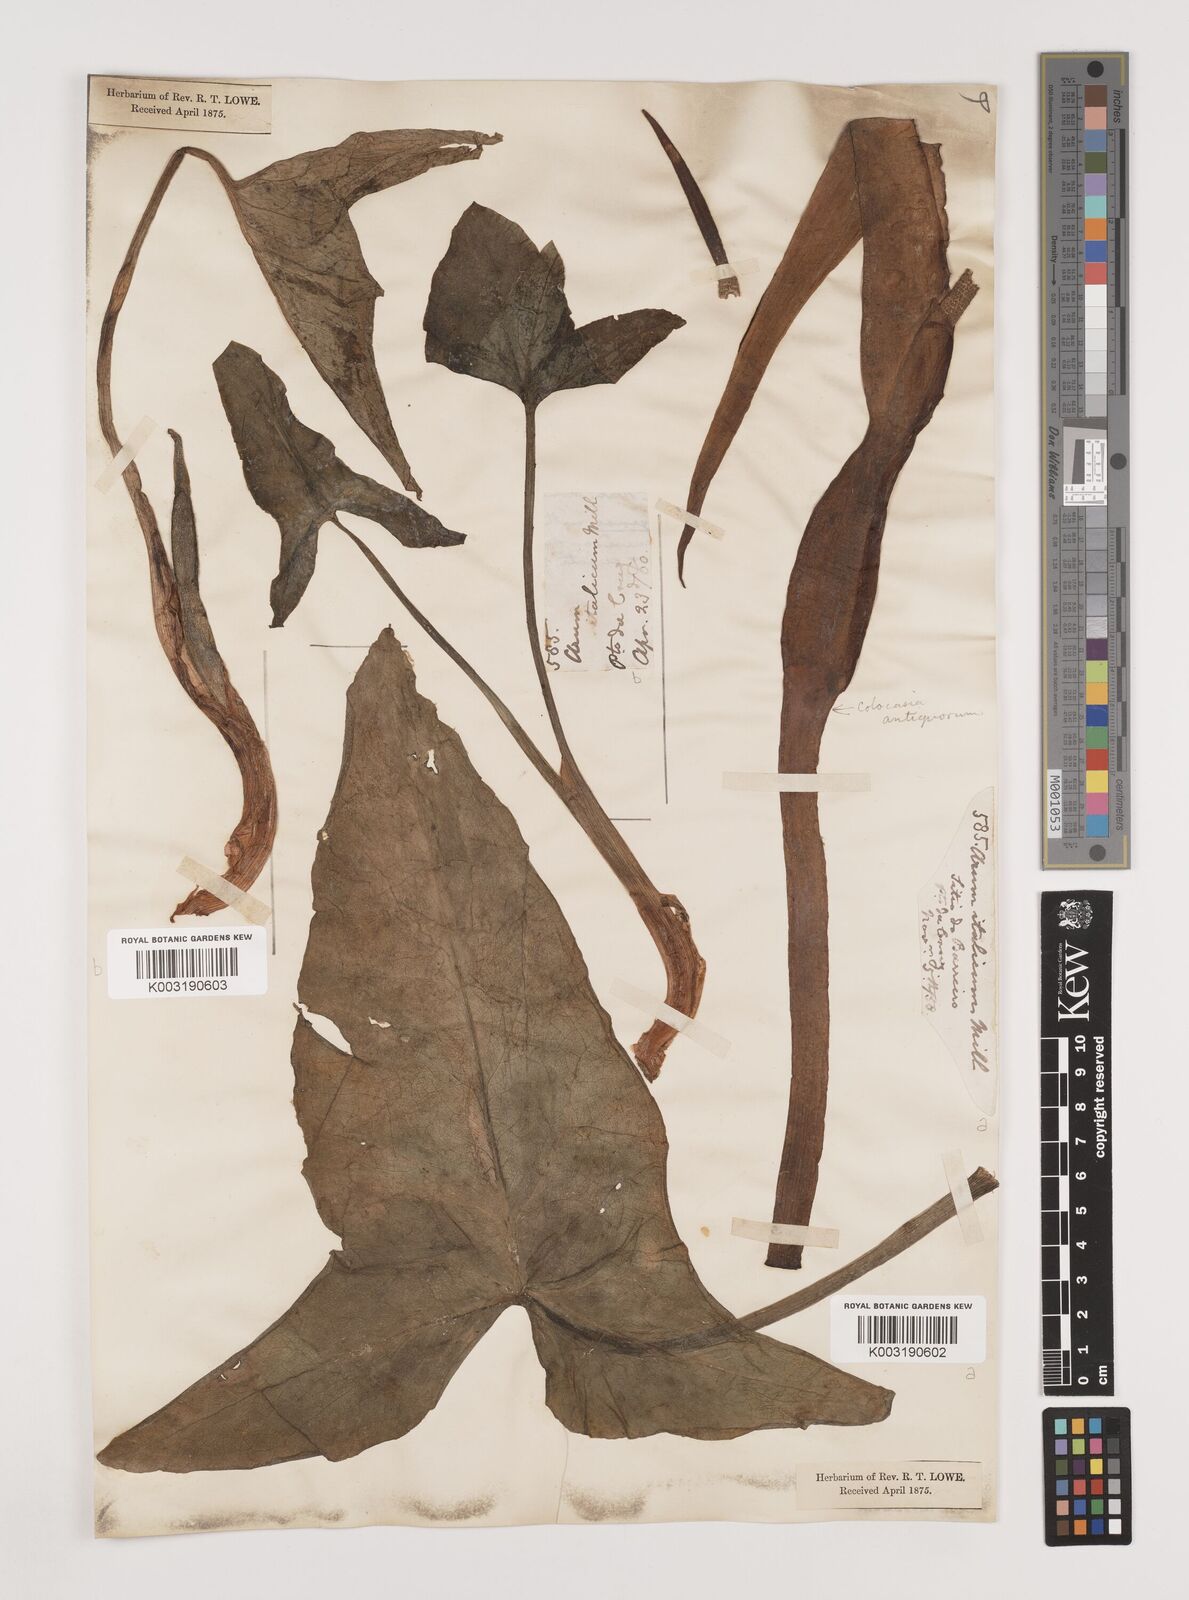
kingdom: Plantae
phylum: Tracheophyta
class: Liliopsida
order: Alismatales
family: Araceae
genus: Arum
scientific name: Arum italicum
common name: Italian lords-and-ladies
